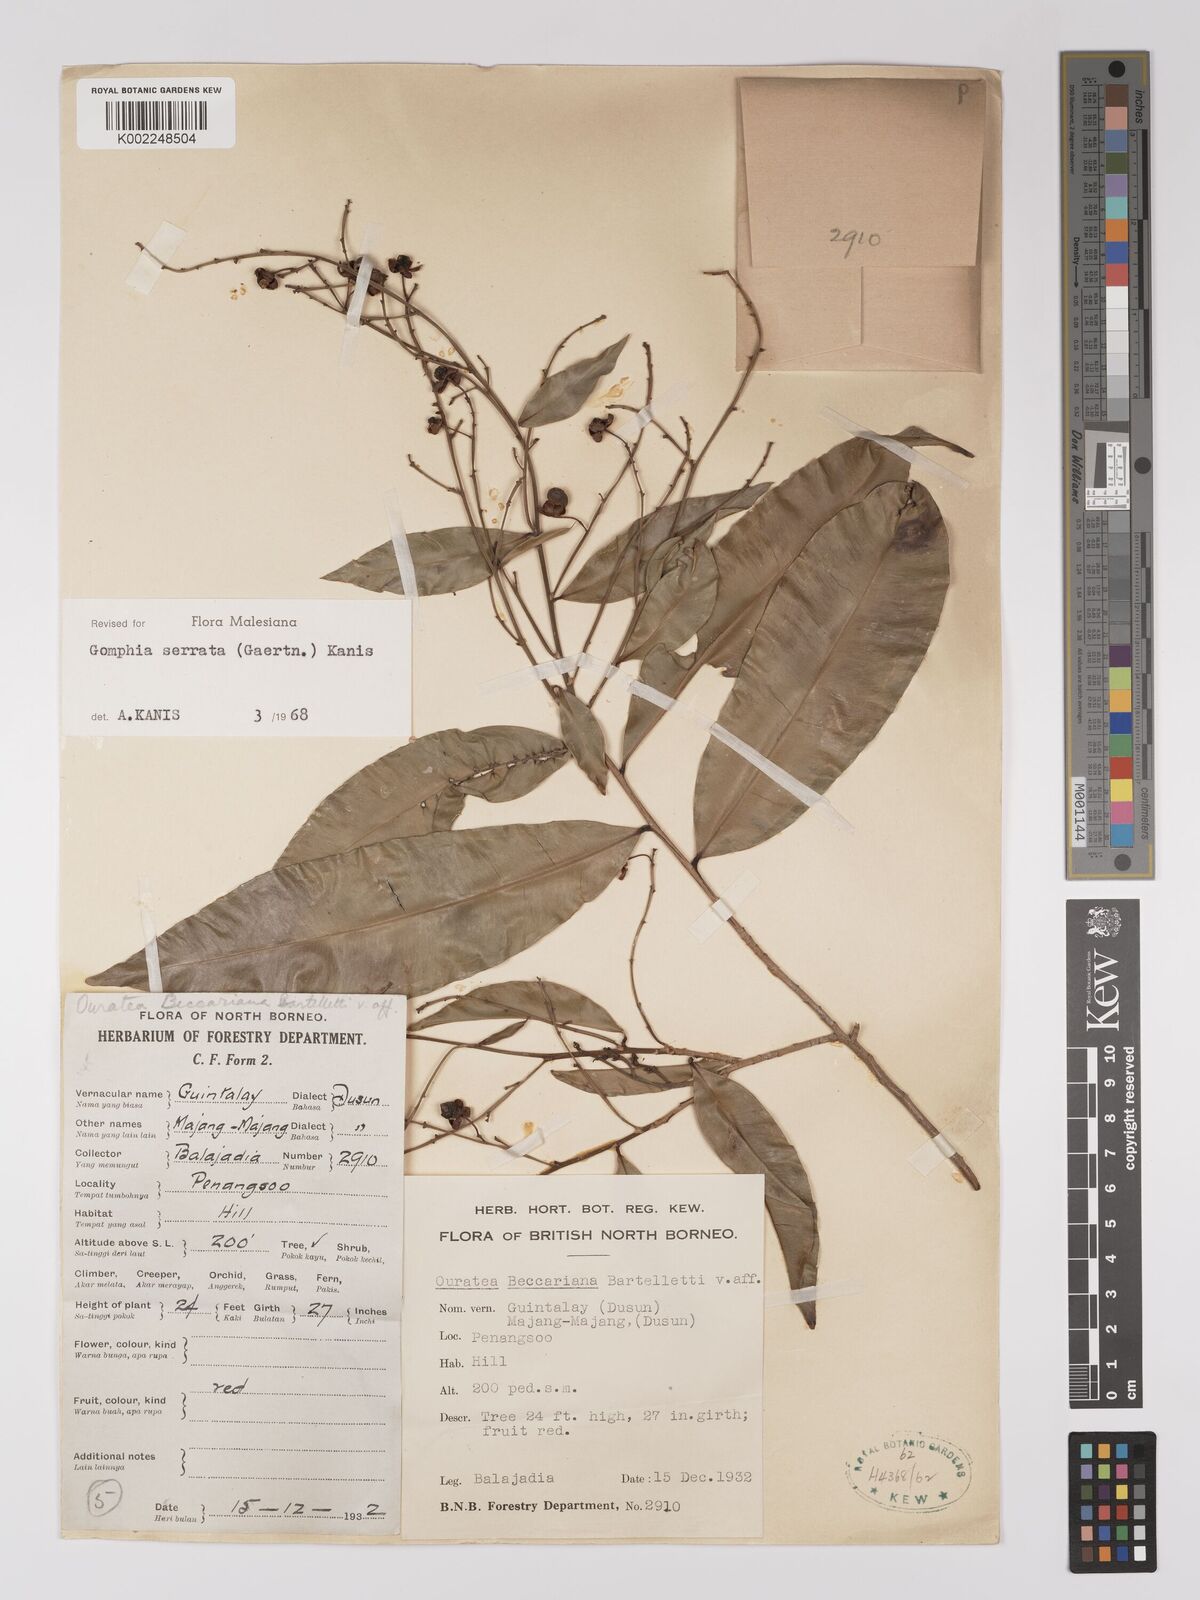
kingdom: Plantae
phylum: Tracheophyta
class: Magnoliopsida
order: Malpighiales
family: Ochnaceae
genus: Gomphia
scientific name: Gomphia serrata
